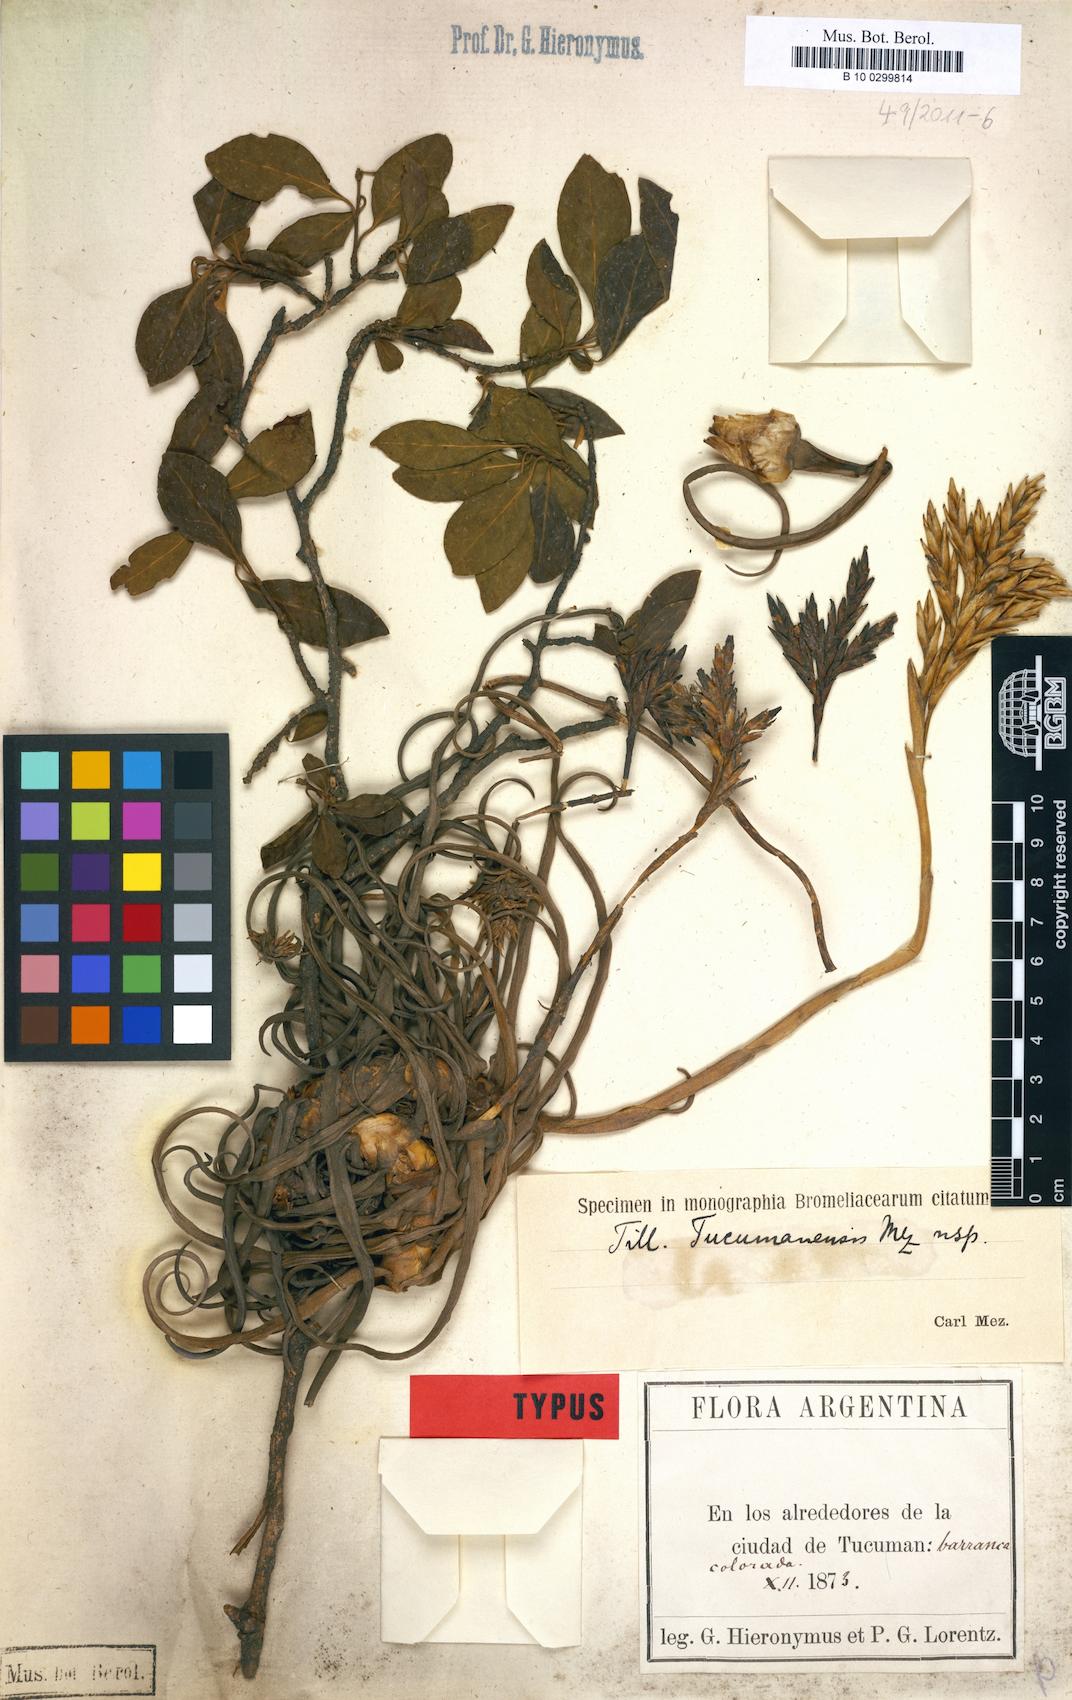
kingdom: Plantae
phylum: Tracheophyta
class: Liliopsida
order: Poales
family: Bromeliaceae
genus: Tillandsia
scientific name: Tillandsia reichenbachii
